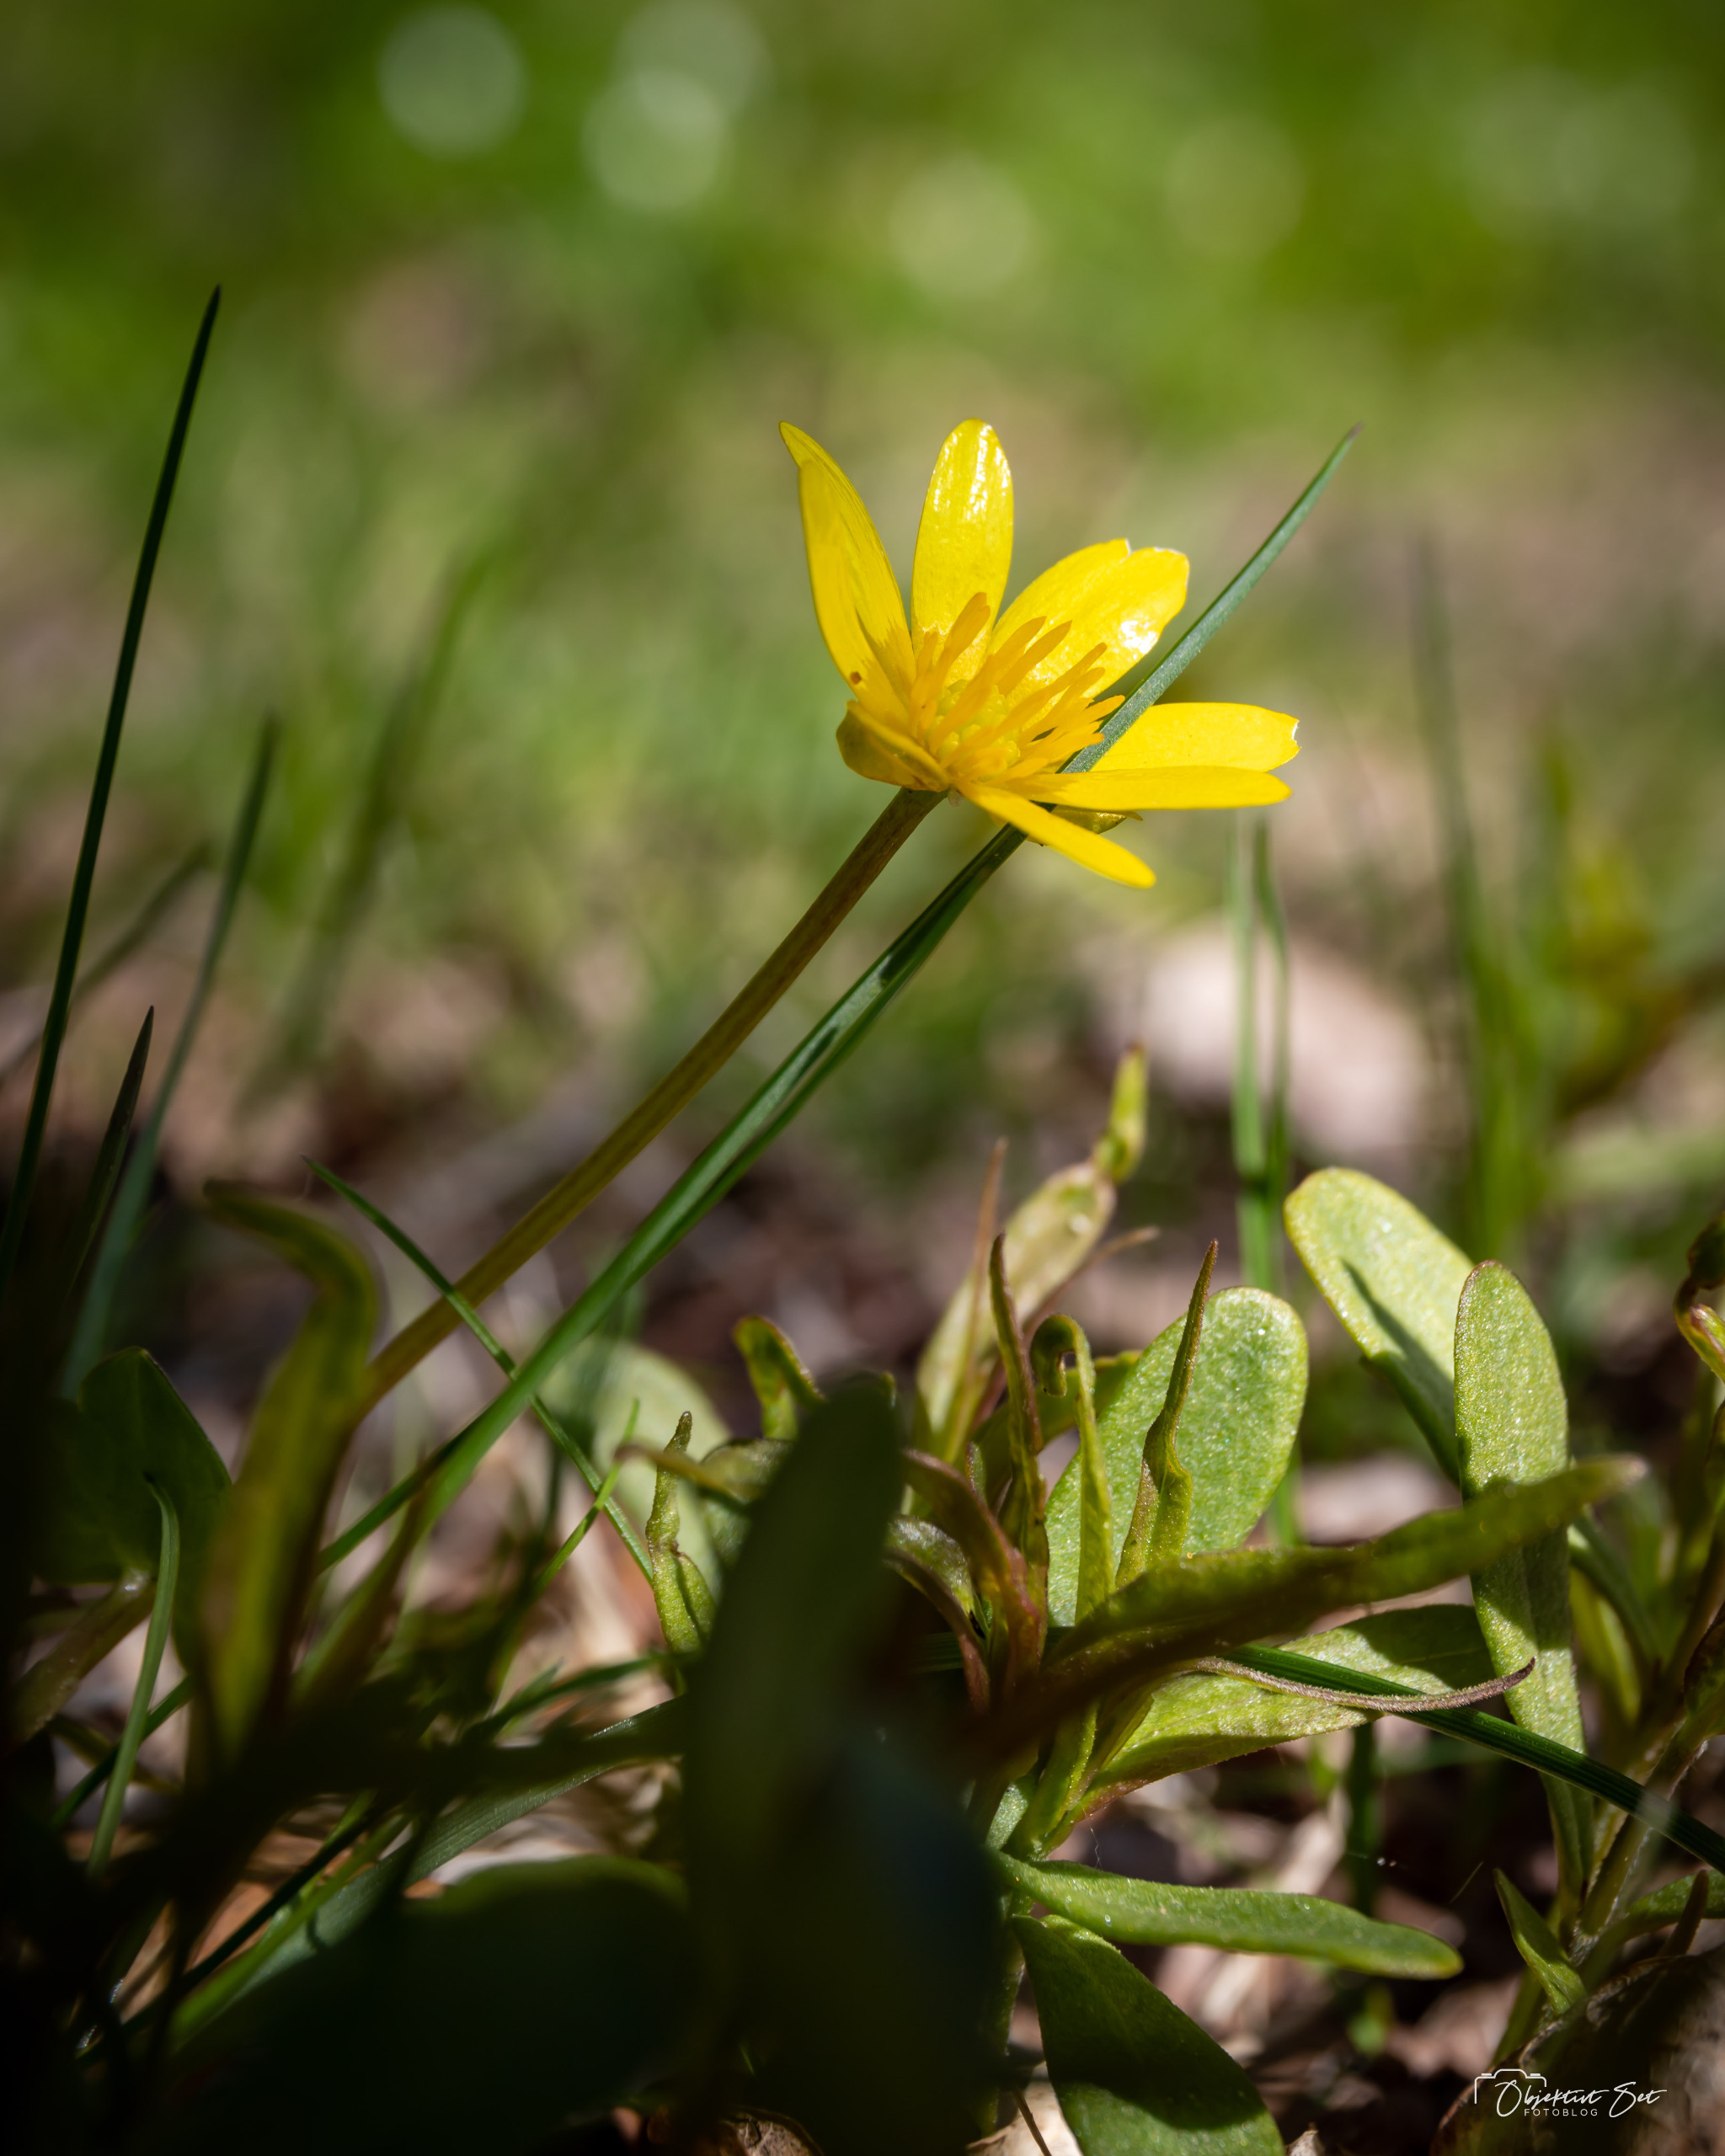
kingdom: Plantae
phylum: Tracheophyta
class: Magnoliopsida
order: Ranunculales
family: Ranunculaceae
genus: Ficaria
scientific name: Ficaria verna
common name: Vorterod
